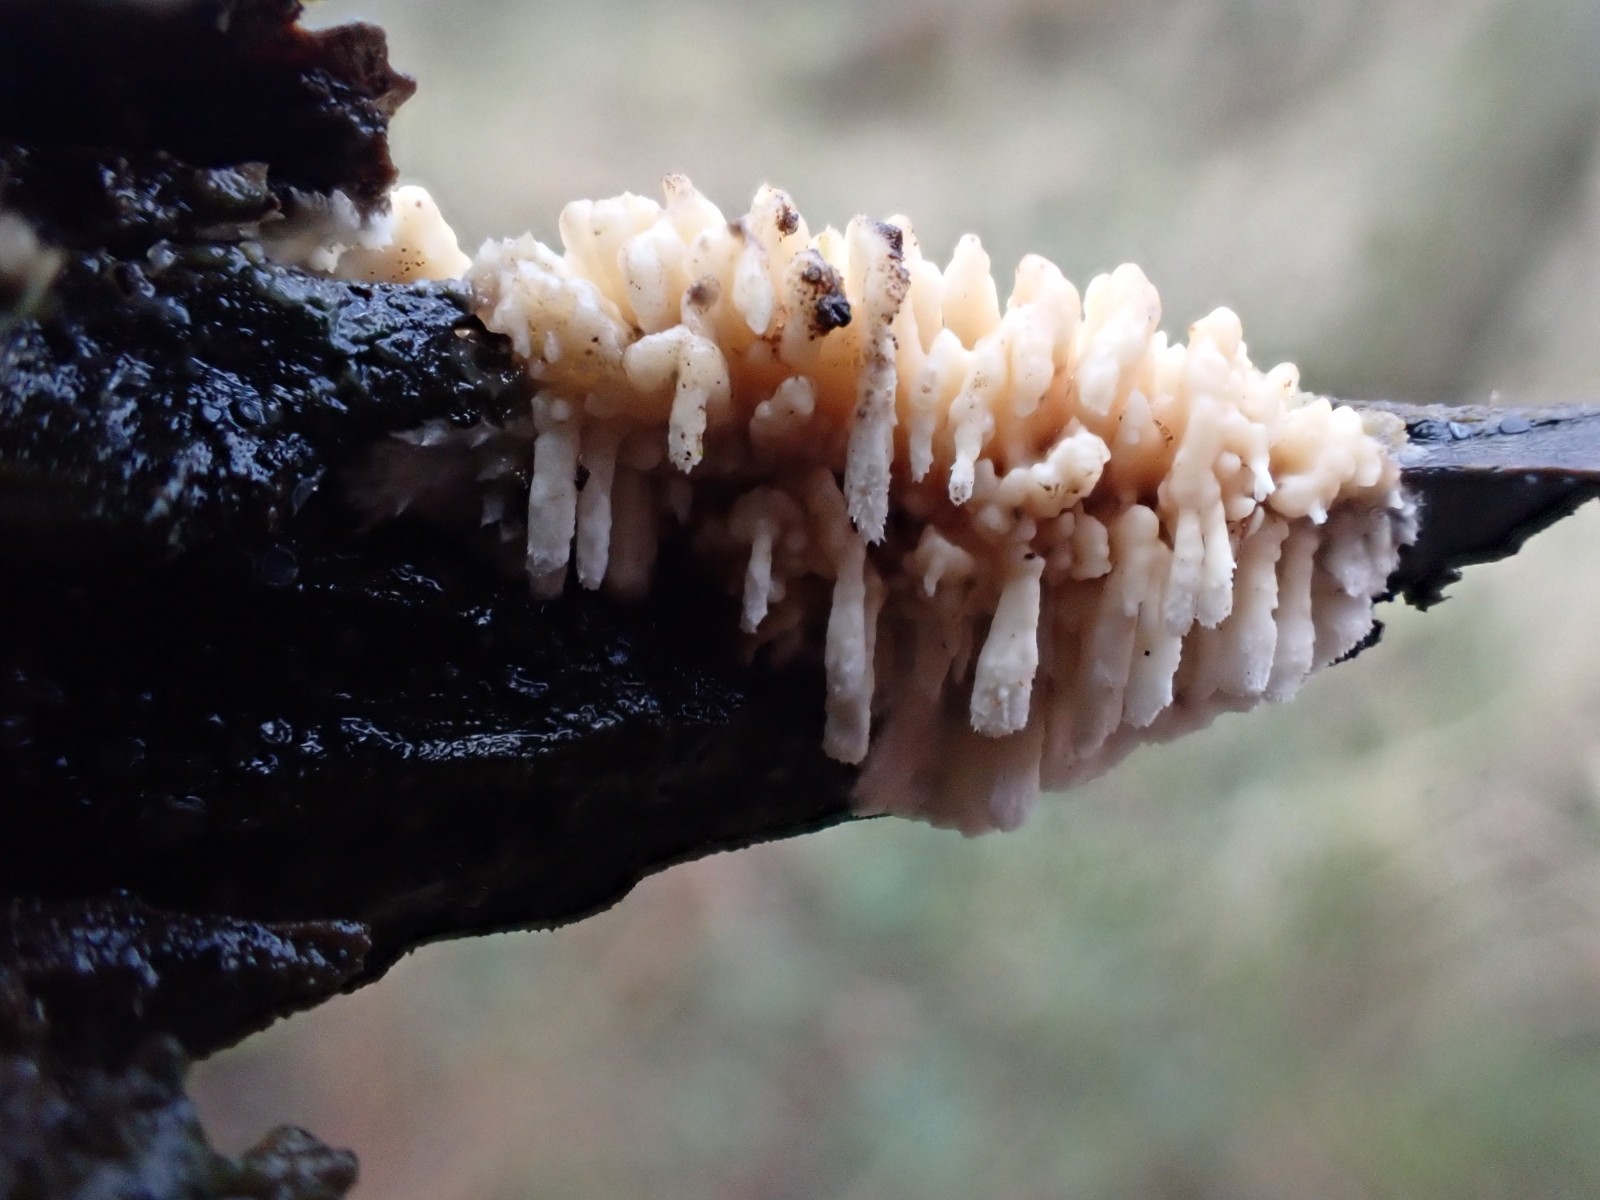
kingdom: Fungi
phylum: Basidiomycota
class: Agaricomycetes
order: Corticiales
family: Corticiaceae
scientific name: Corticiaceae
